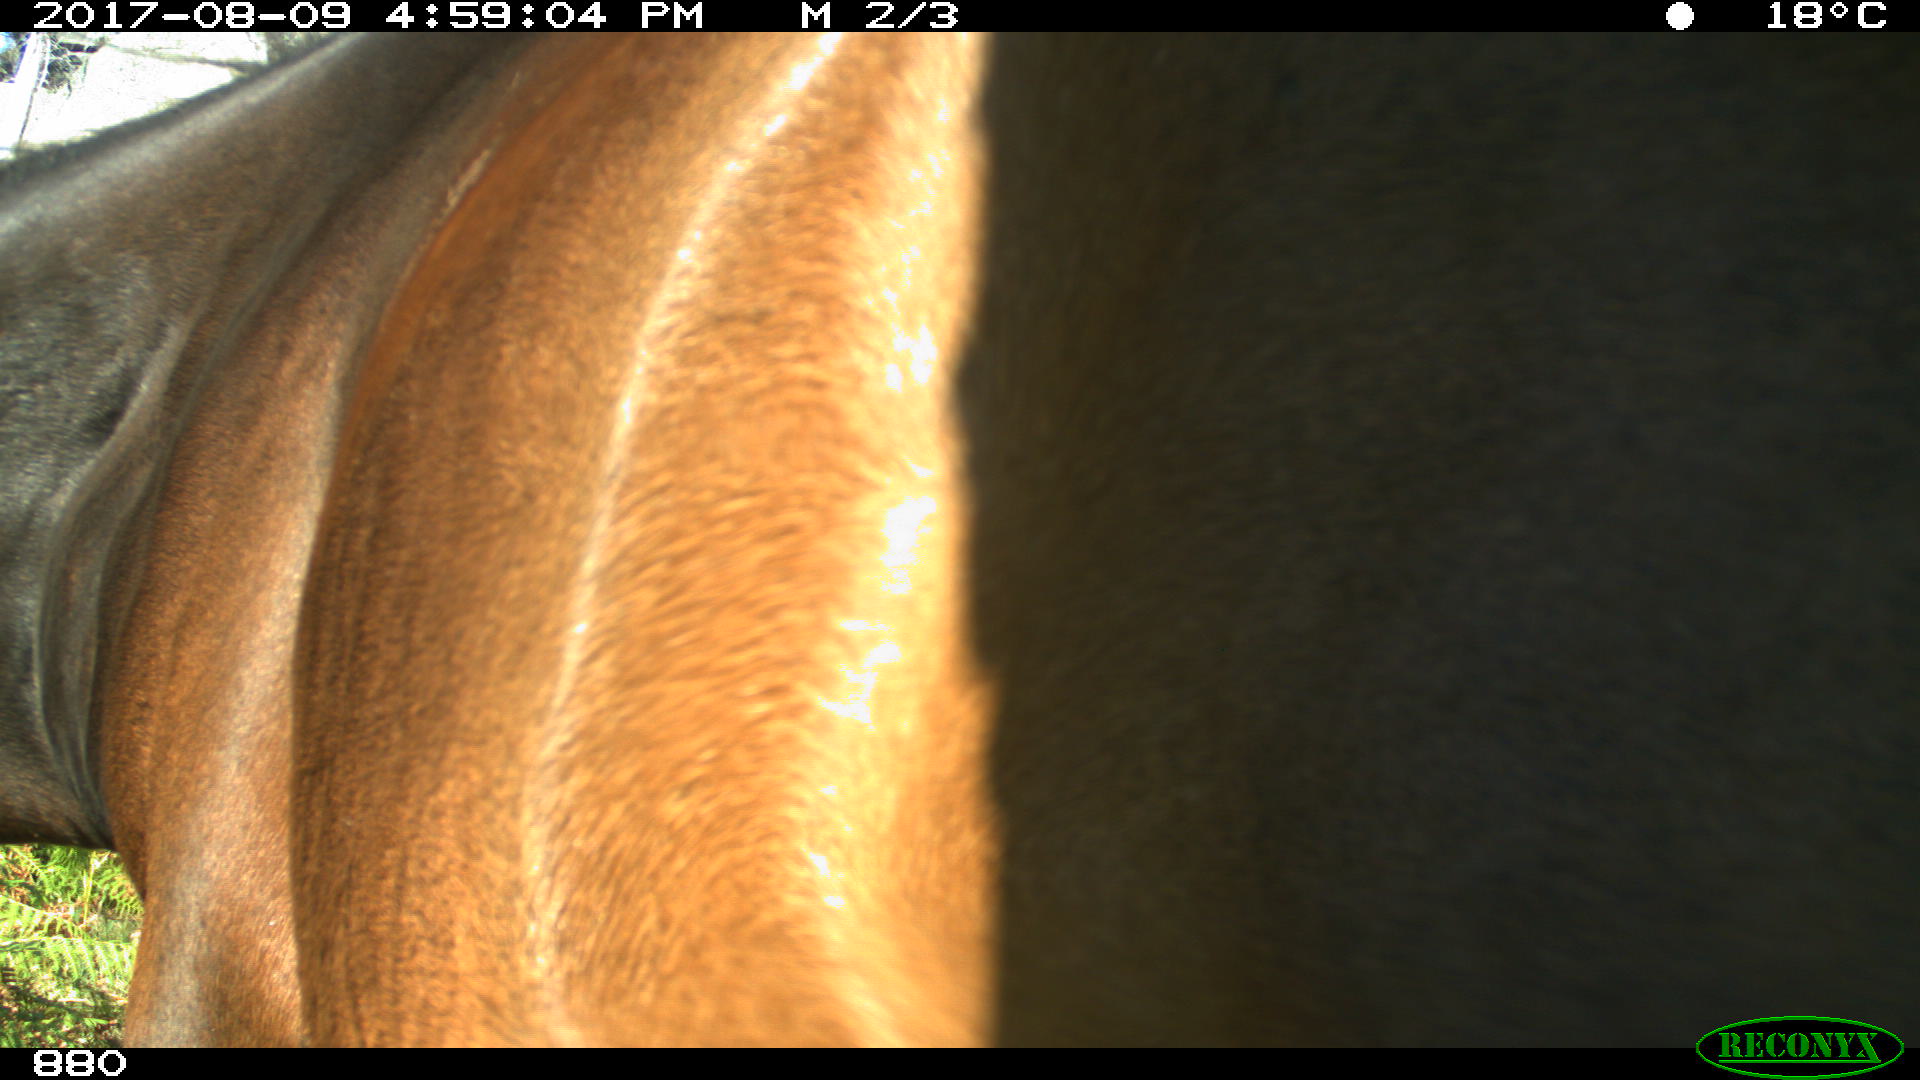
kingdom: Animalia
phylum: Chordata
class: Mammalia
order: Perissodactyla
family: Equidae
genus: Equus
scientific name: Equus caballus
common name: Horse
